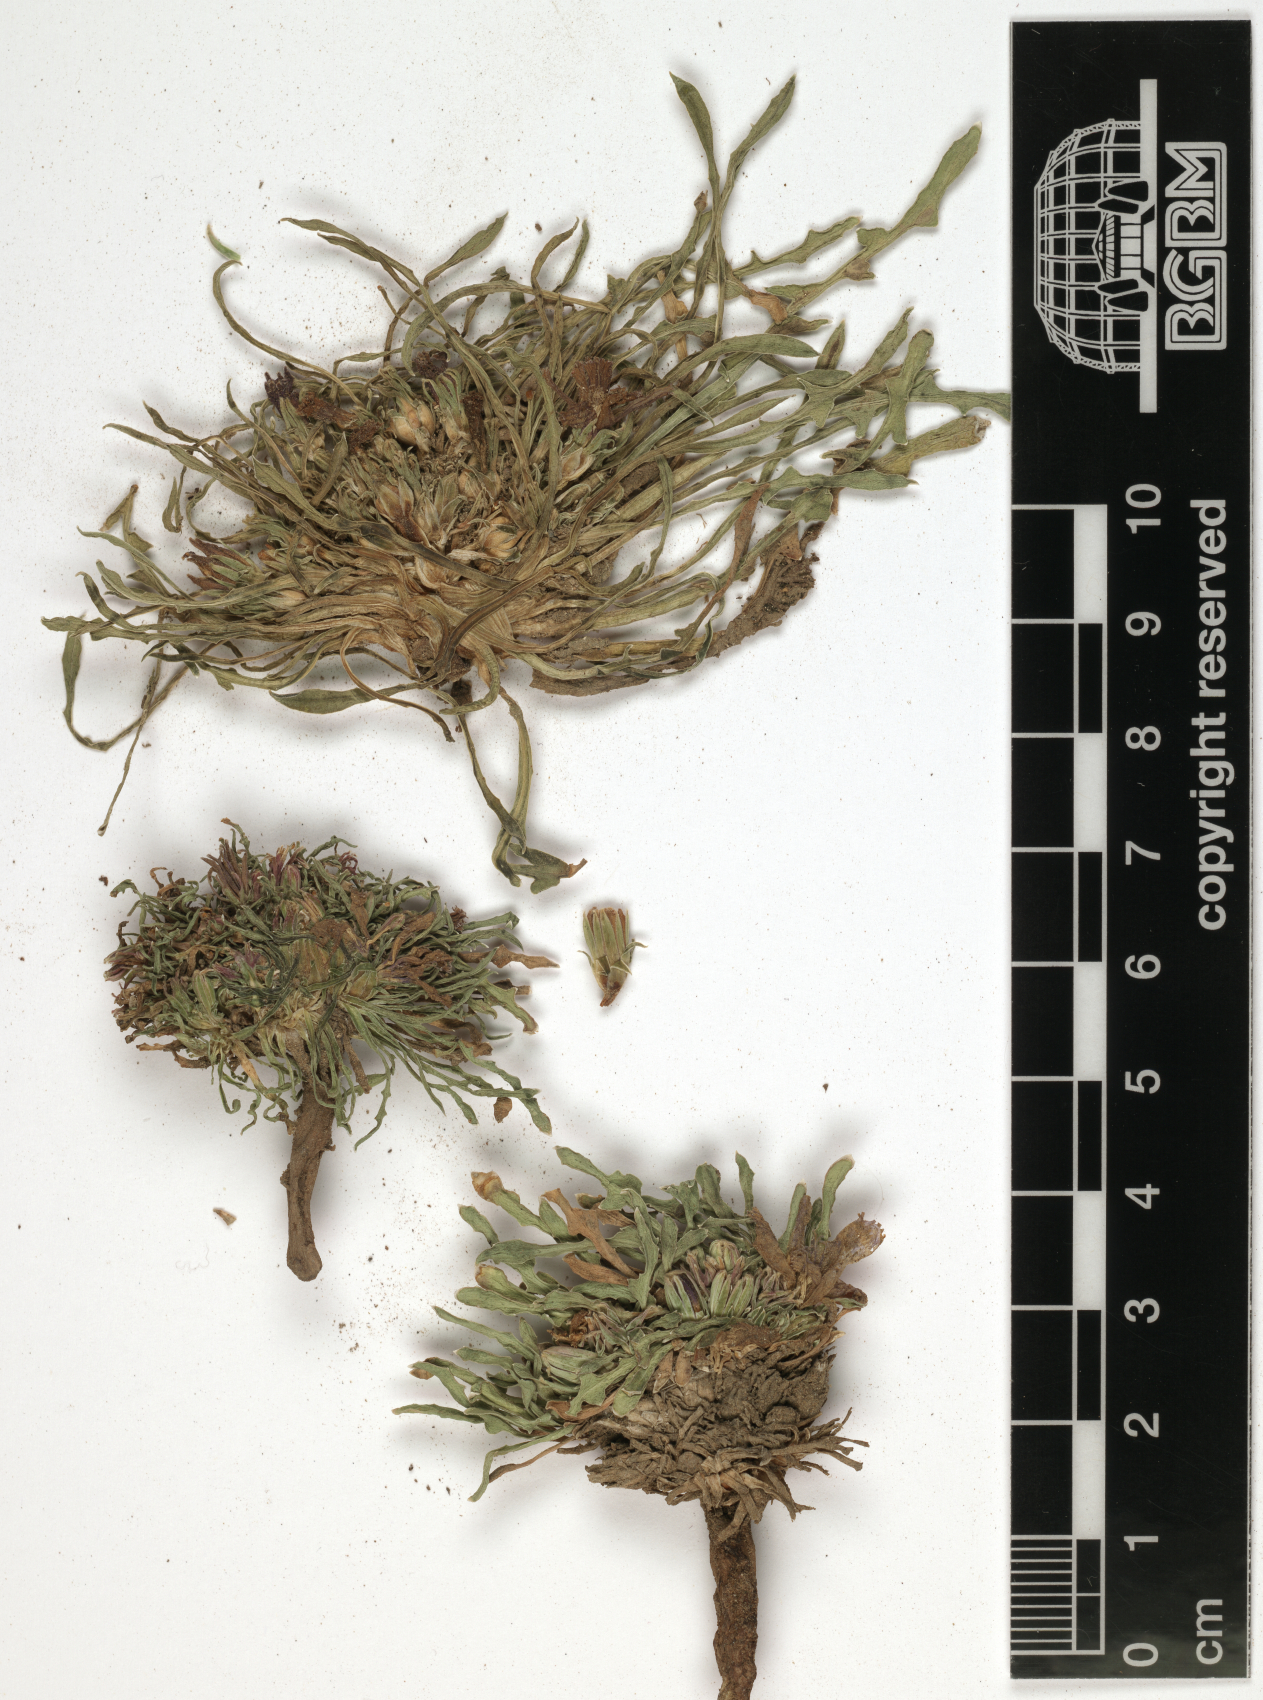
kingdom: Plantae
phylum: Tracheophyta
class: Magnoliopsida
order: Asterales
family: Asteraceae
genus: Cichorium
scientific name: Cichorium bottae
